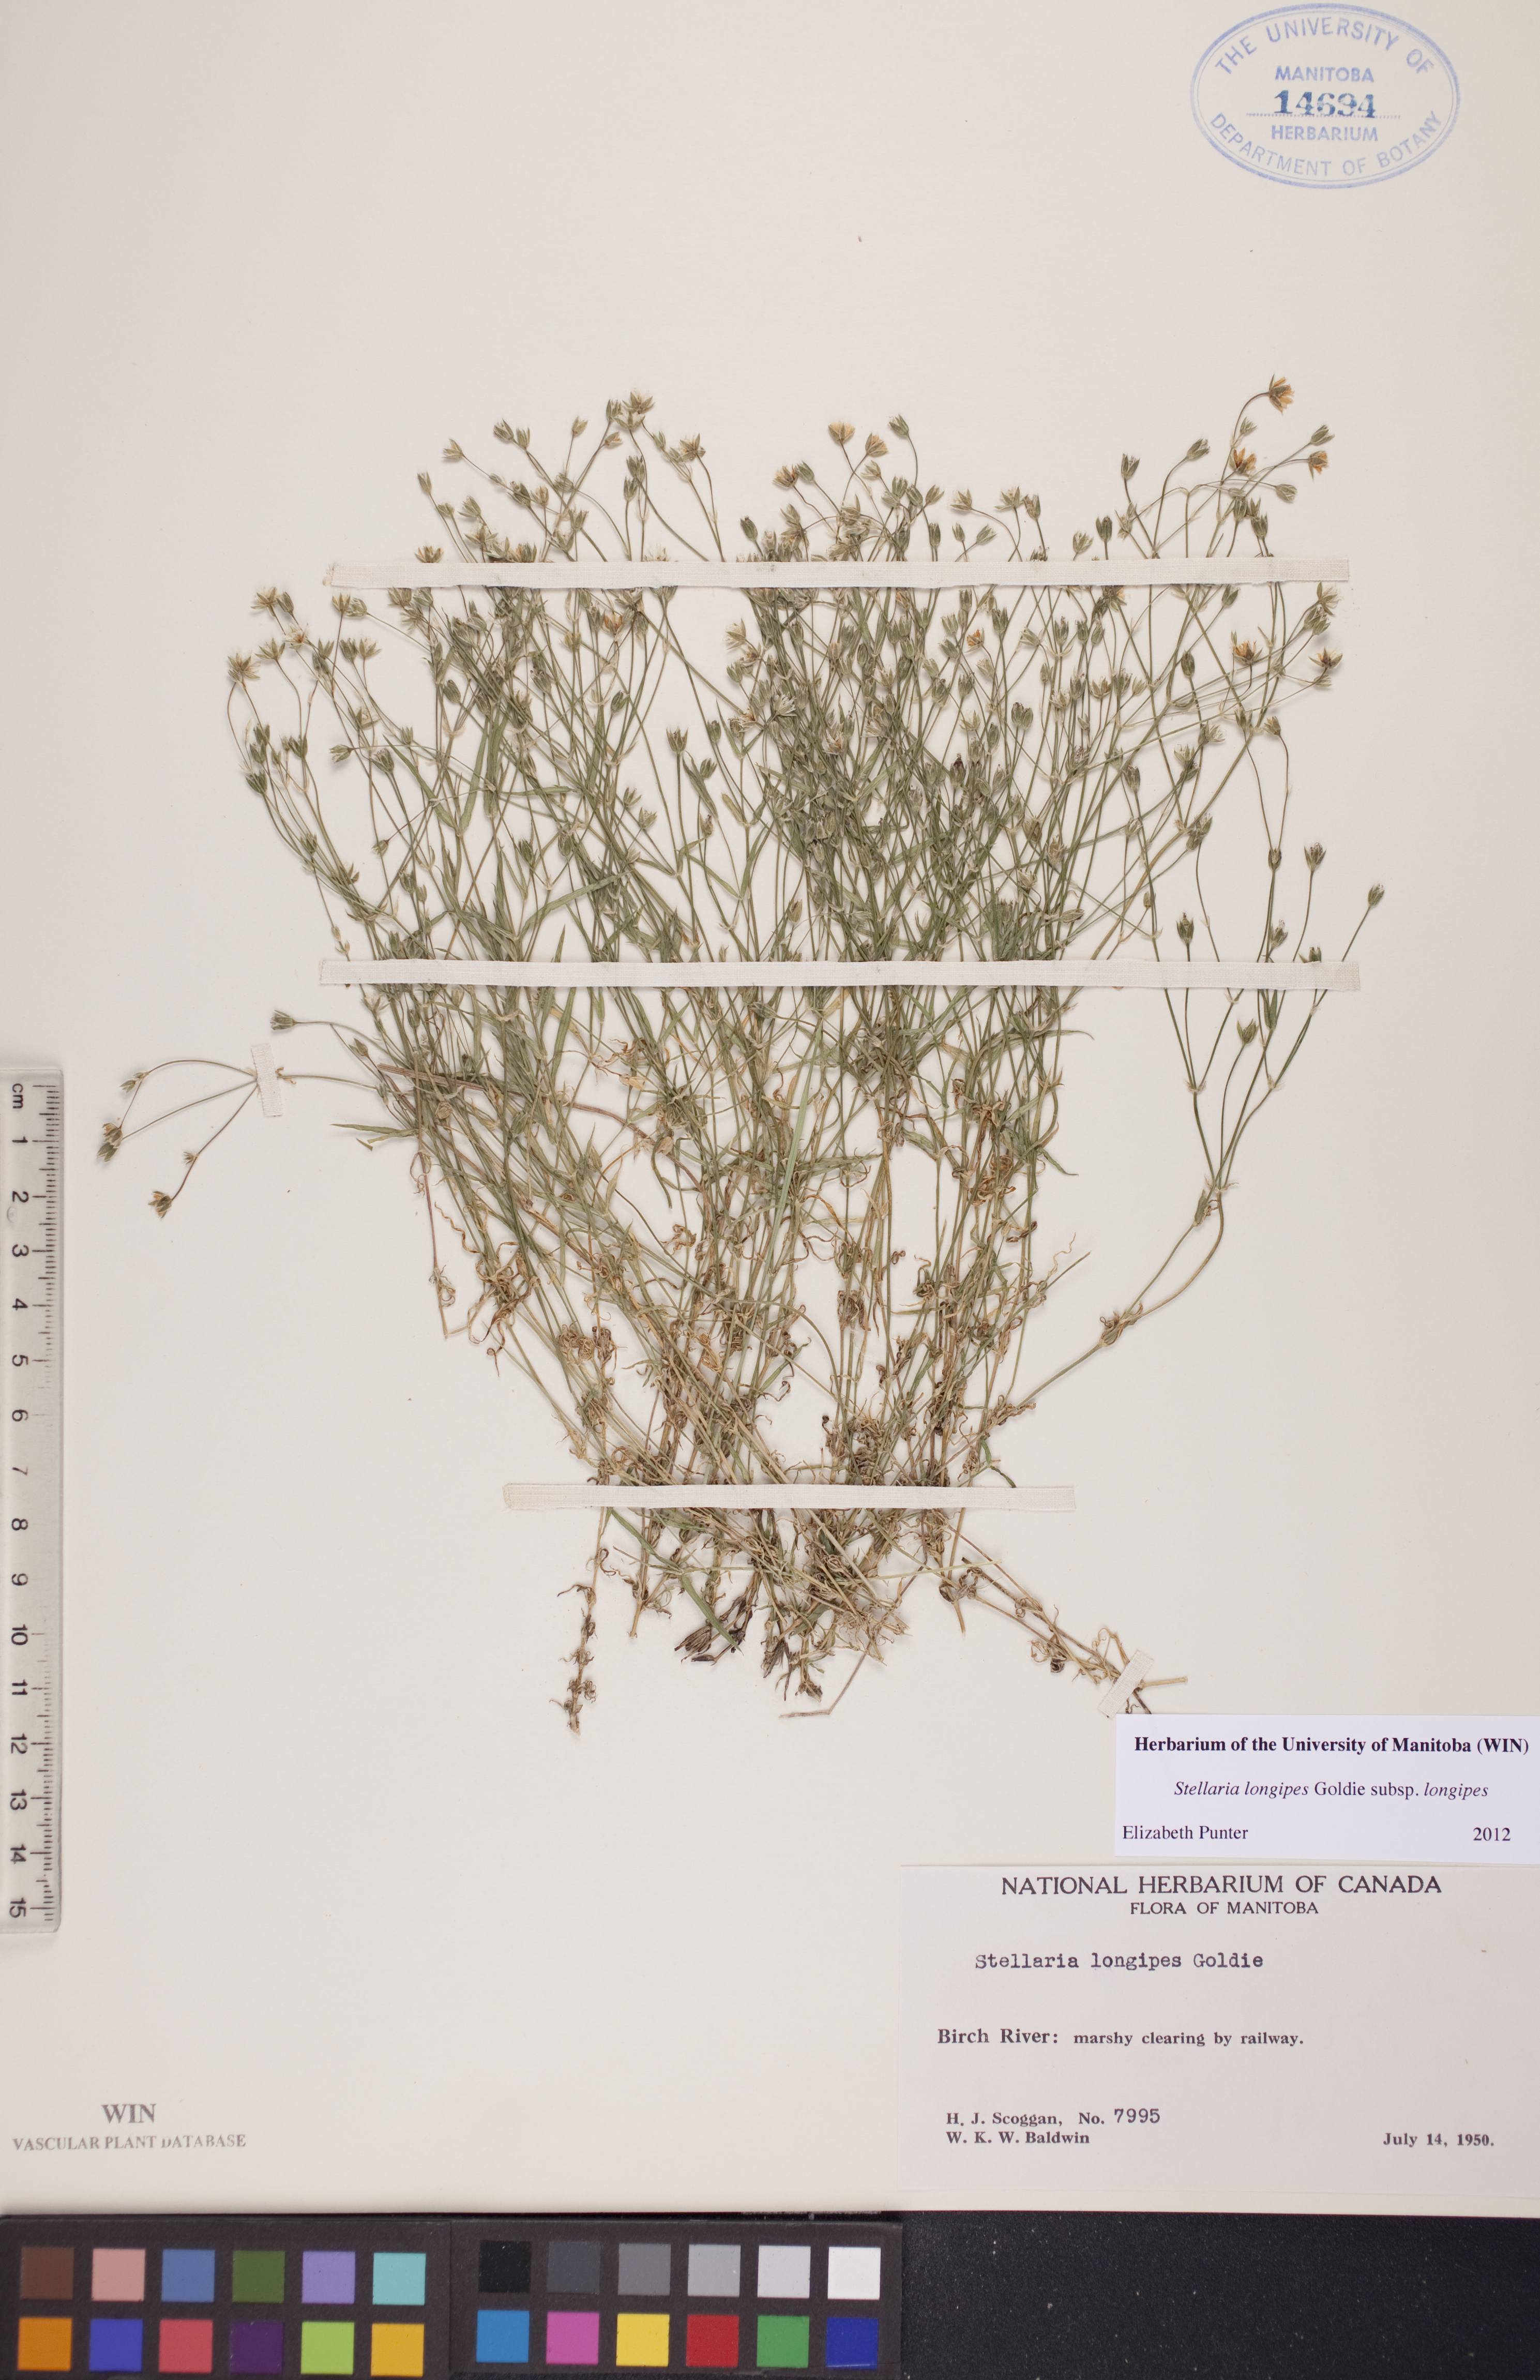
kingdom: Plantae
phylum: Tracheophyta
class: Magnoliopsida
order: Caryophyllales
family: Caryophyllaceae
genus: Stellaria
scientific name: Stellaria longipes
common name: Goldie's starwort
